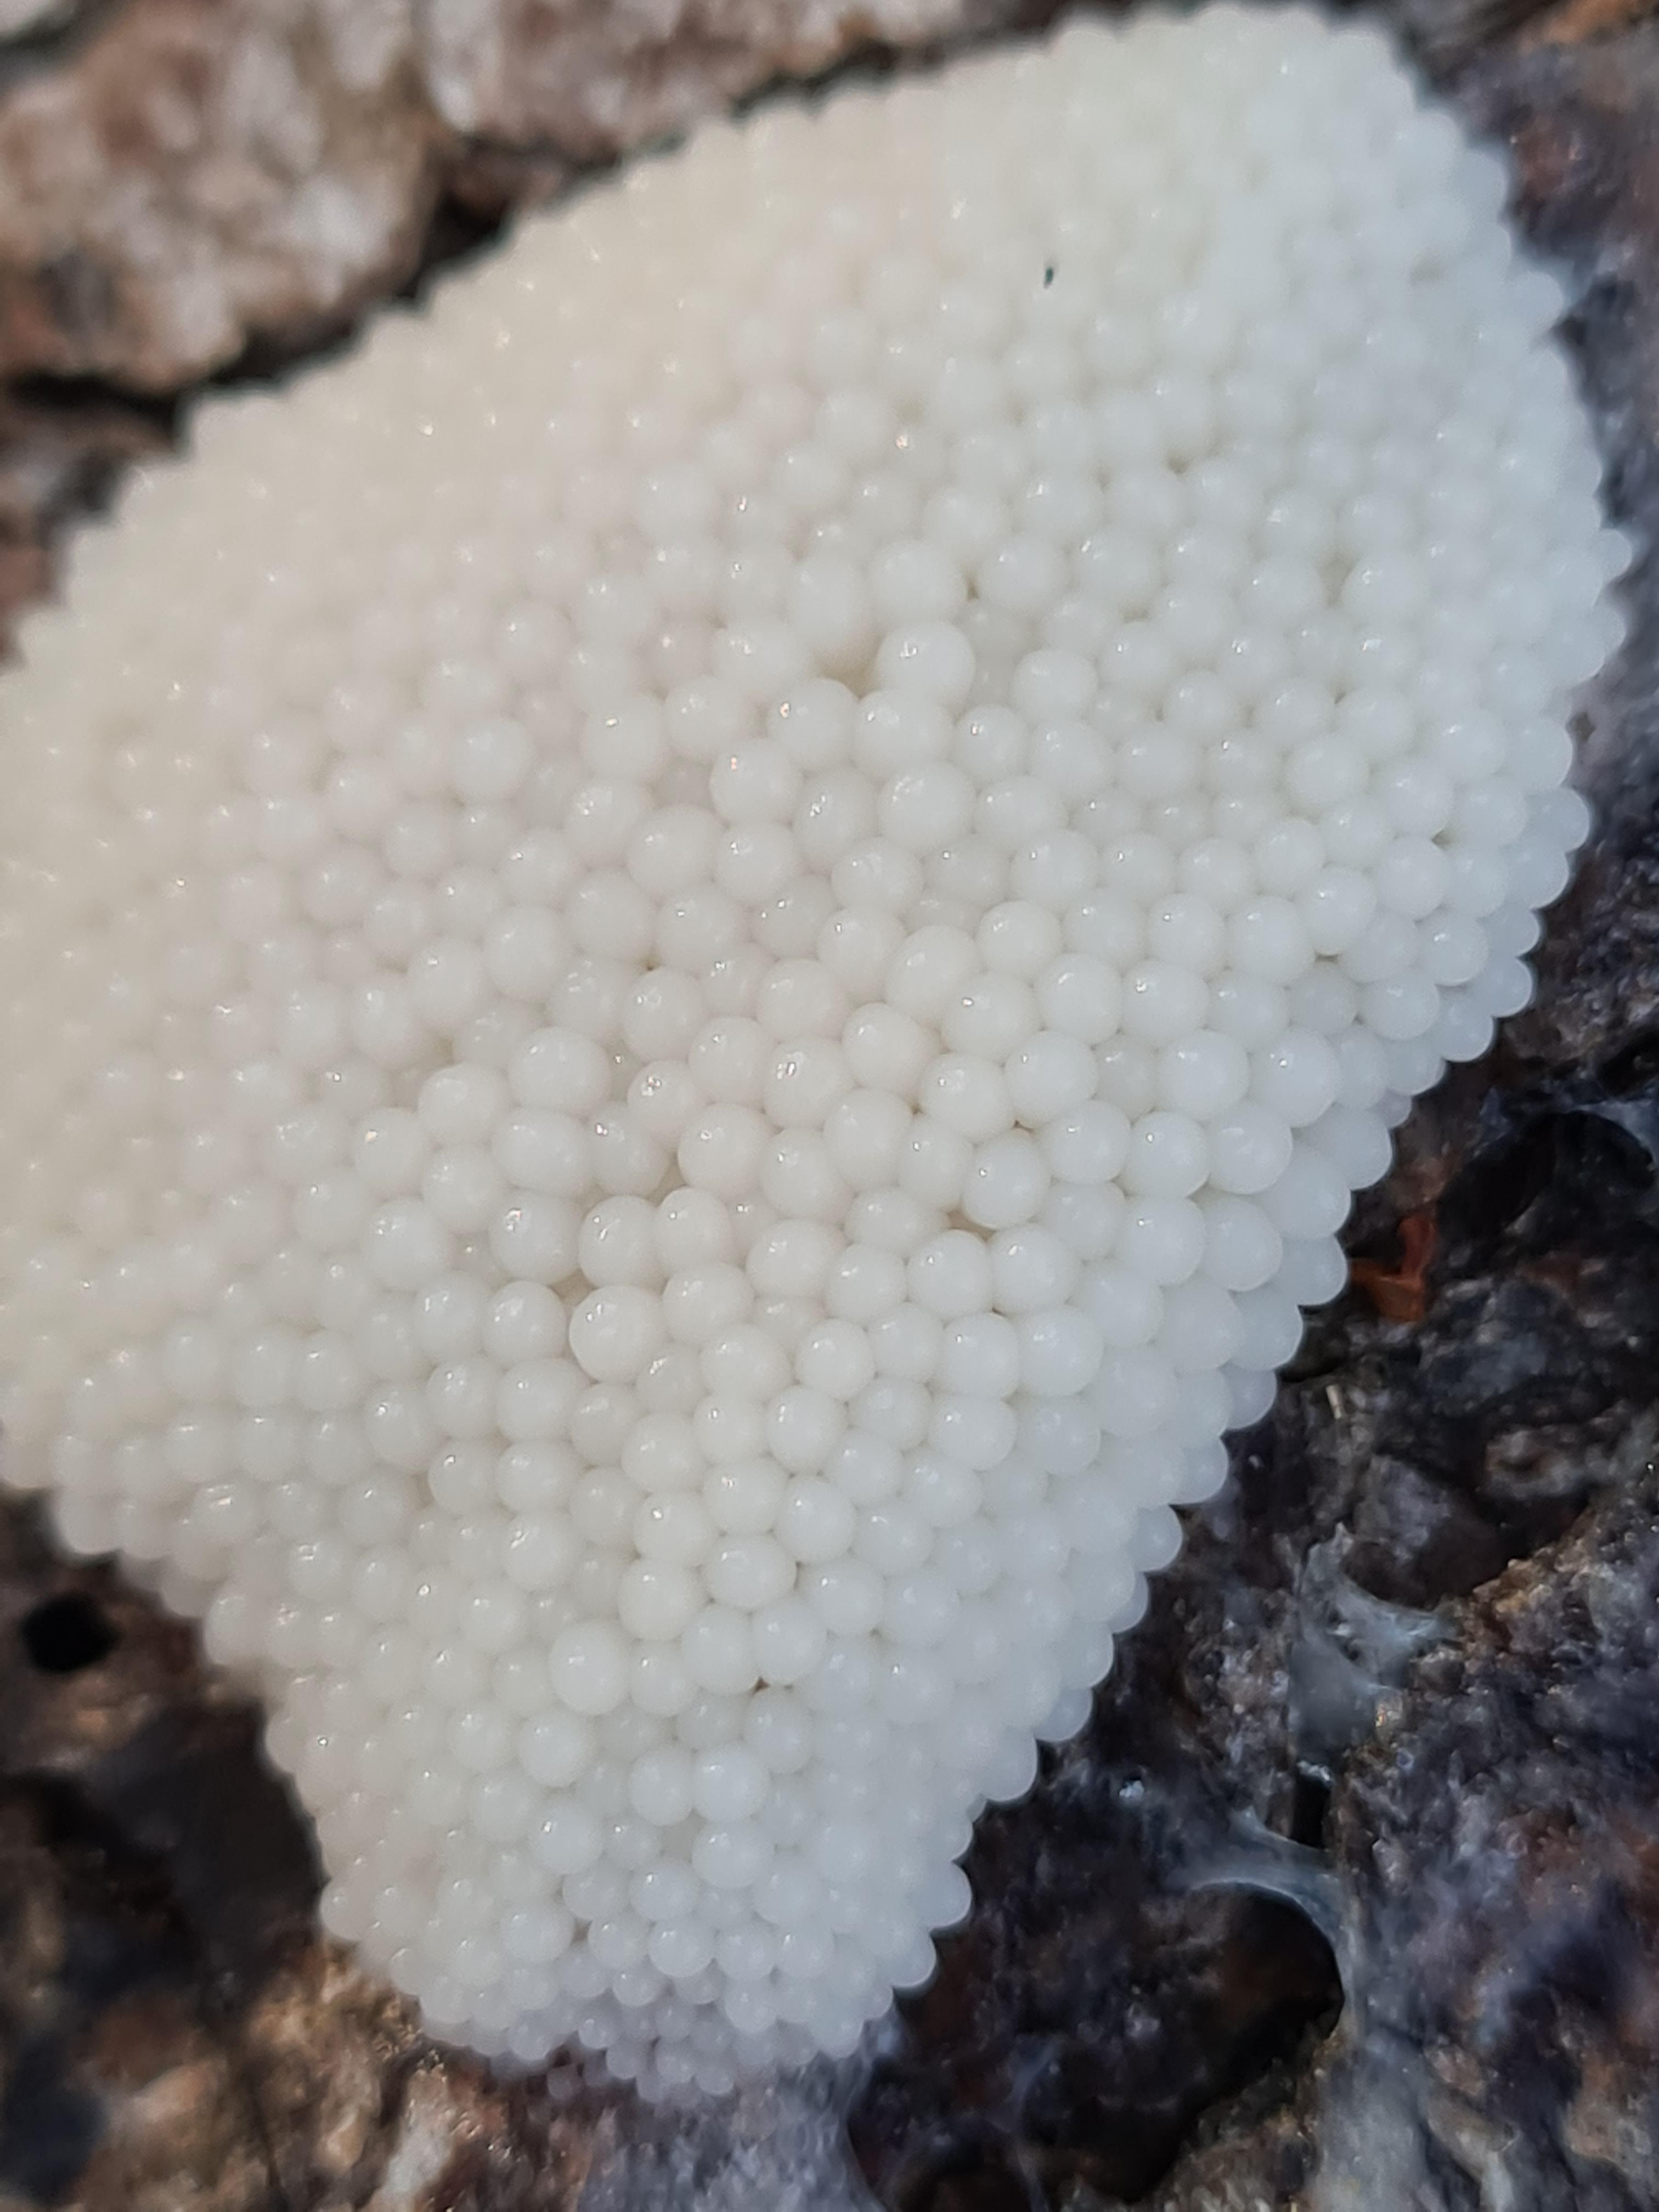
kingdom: Protozoa
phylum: Mycetozoa
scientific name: Mycetozoa
